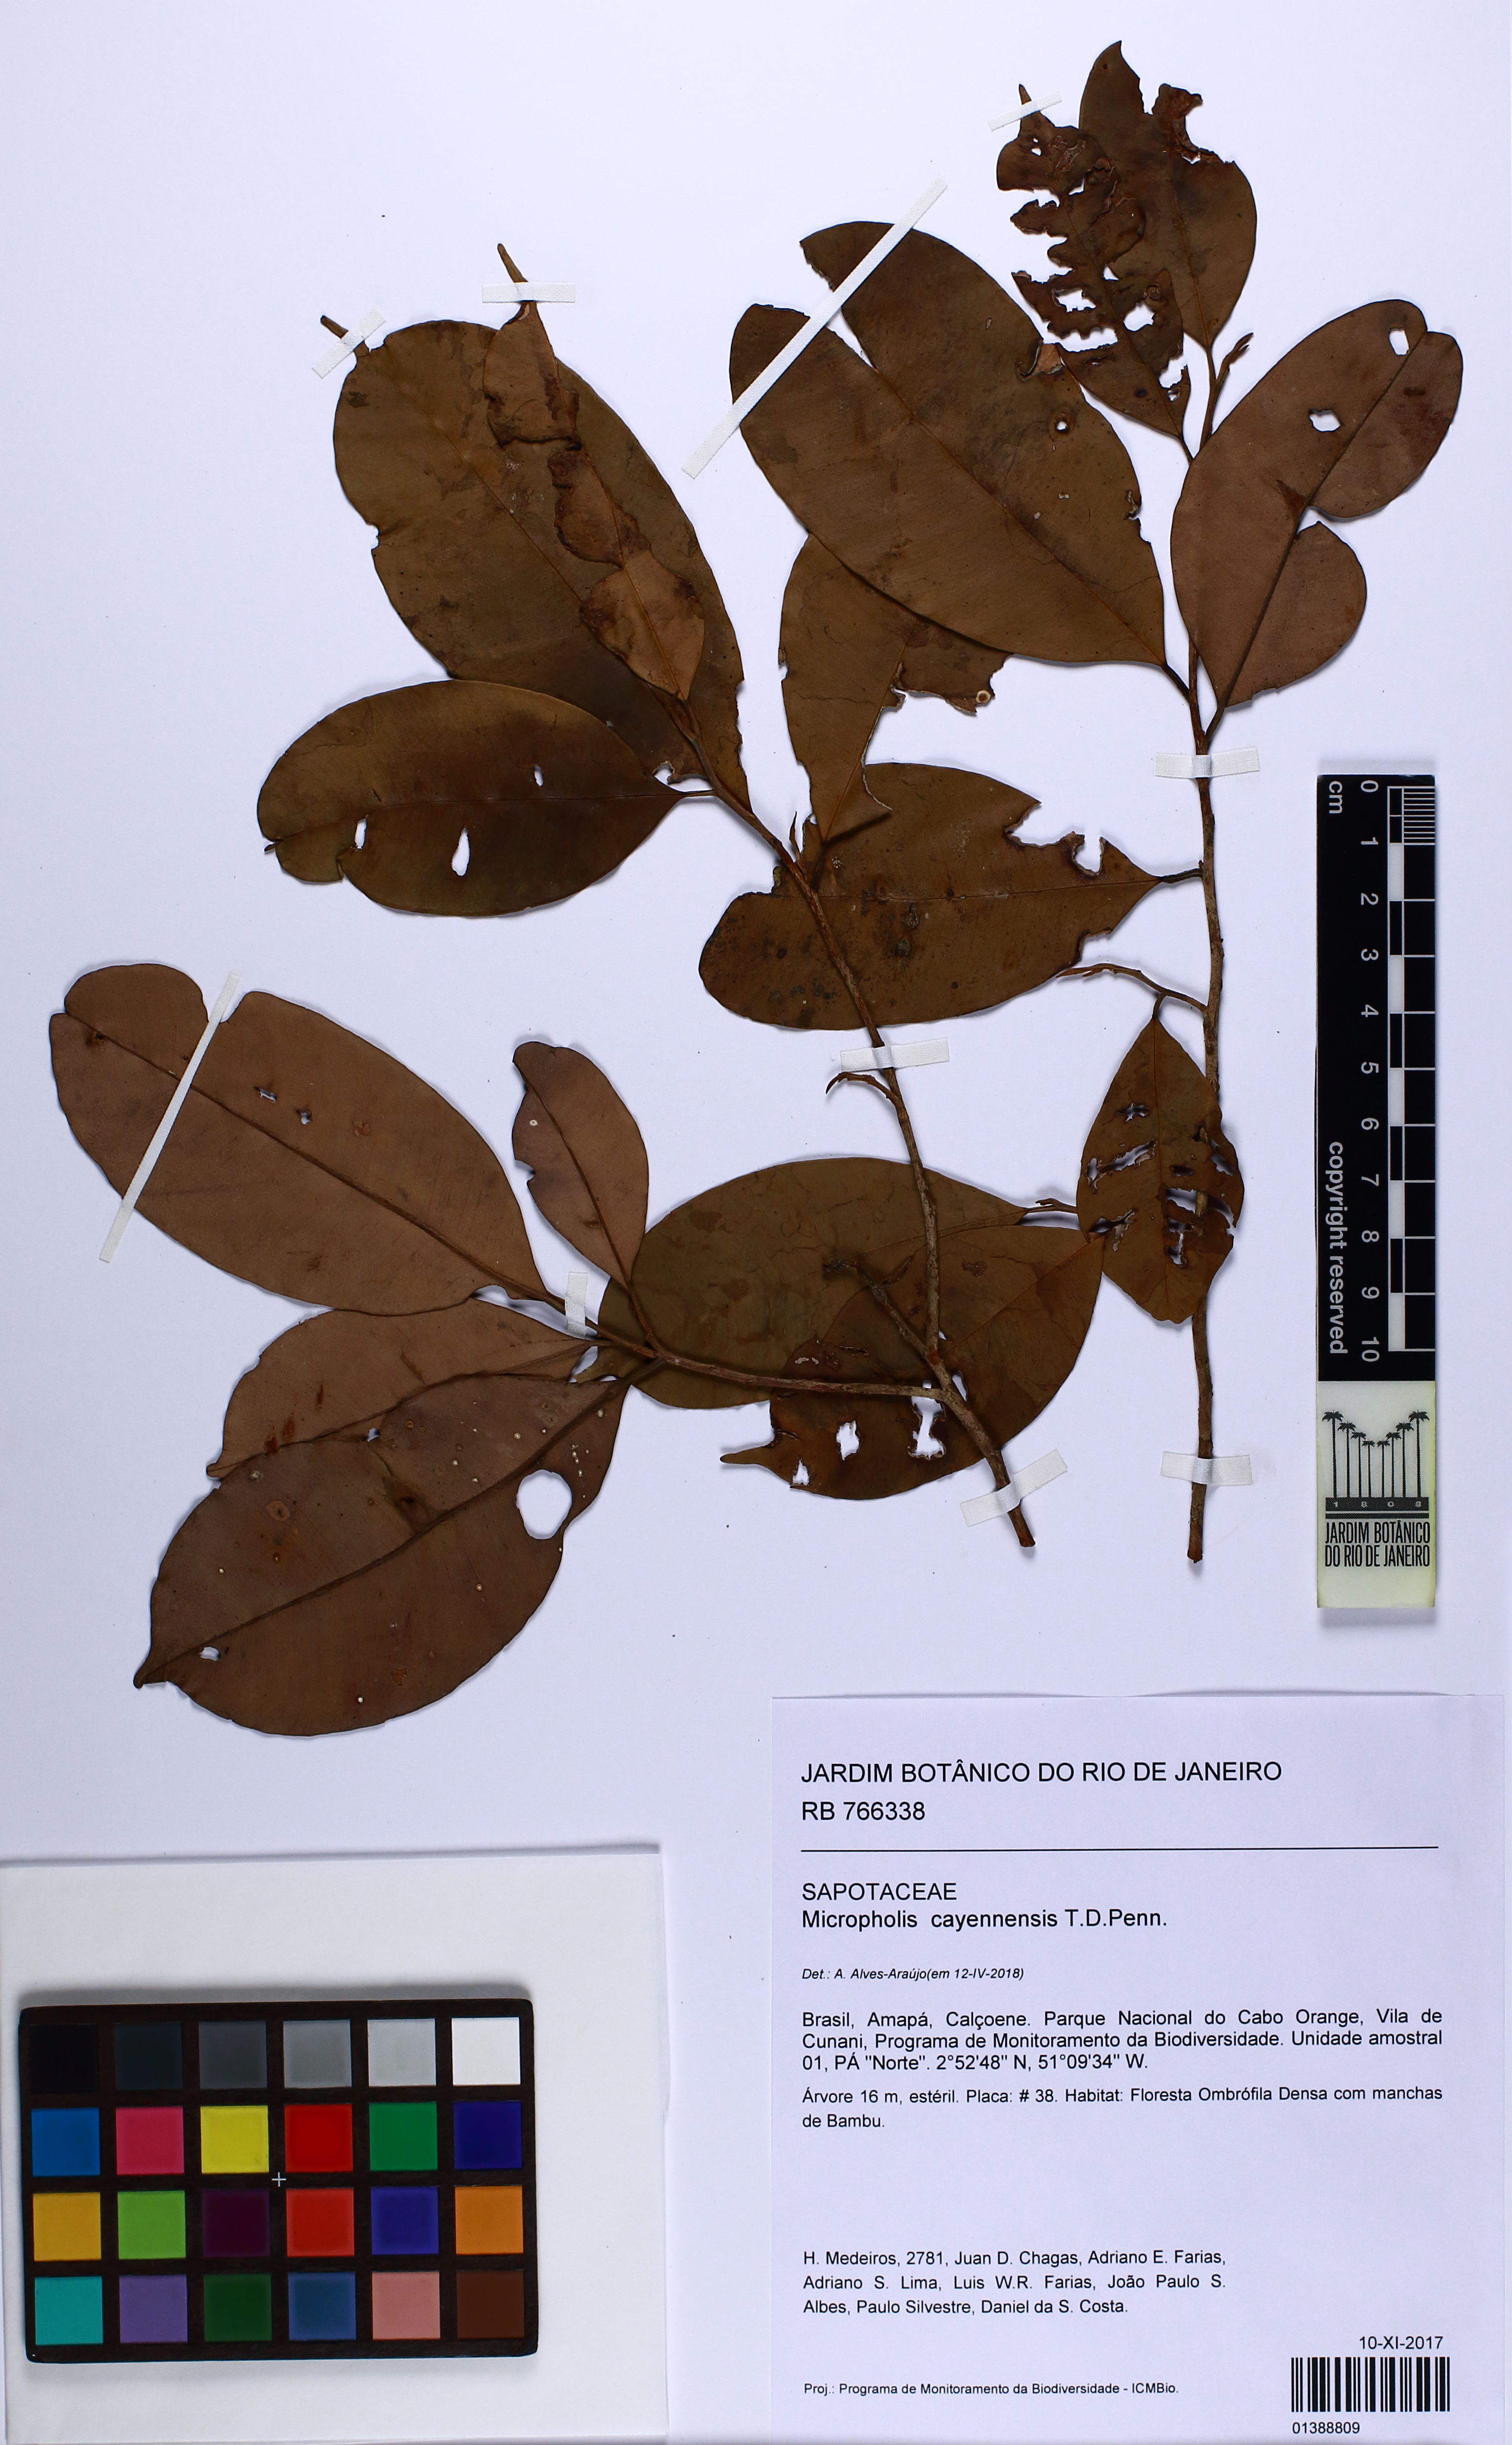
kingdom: Plantae
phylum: Tracheophyta
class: Magnoliopsida
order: Ericales
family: Sapotaceae
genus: Micropholis
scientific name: Micropholis cayennensis
